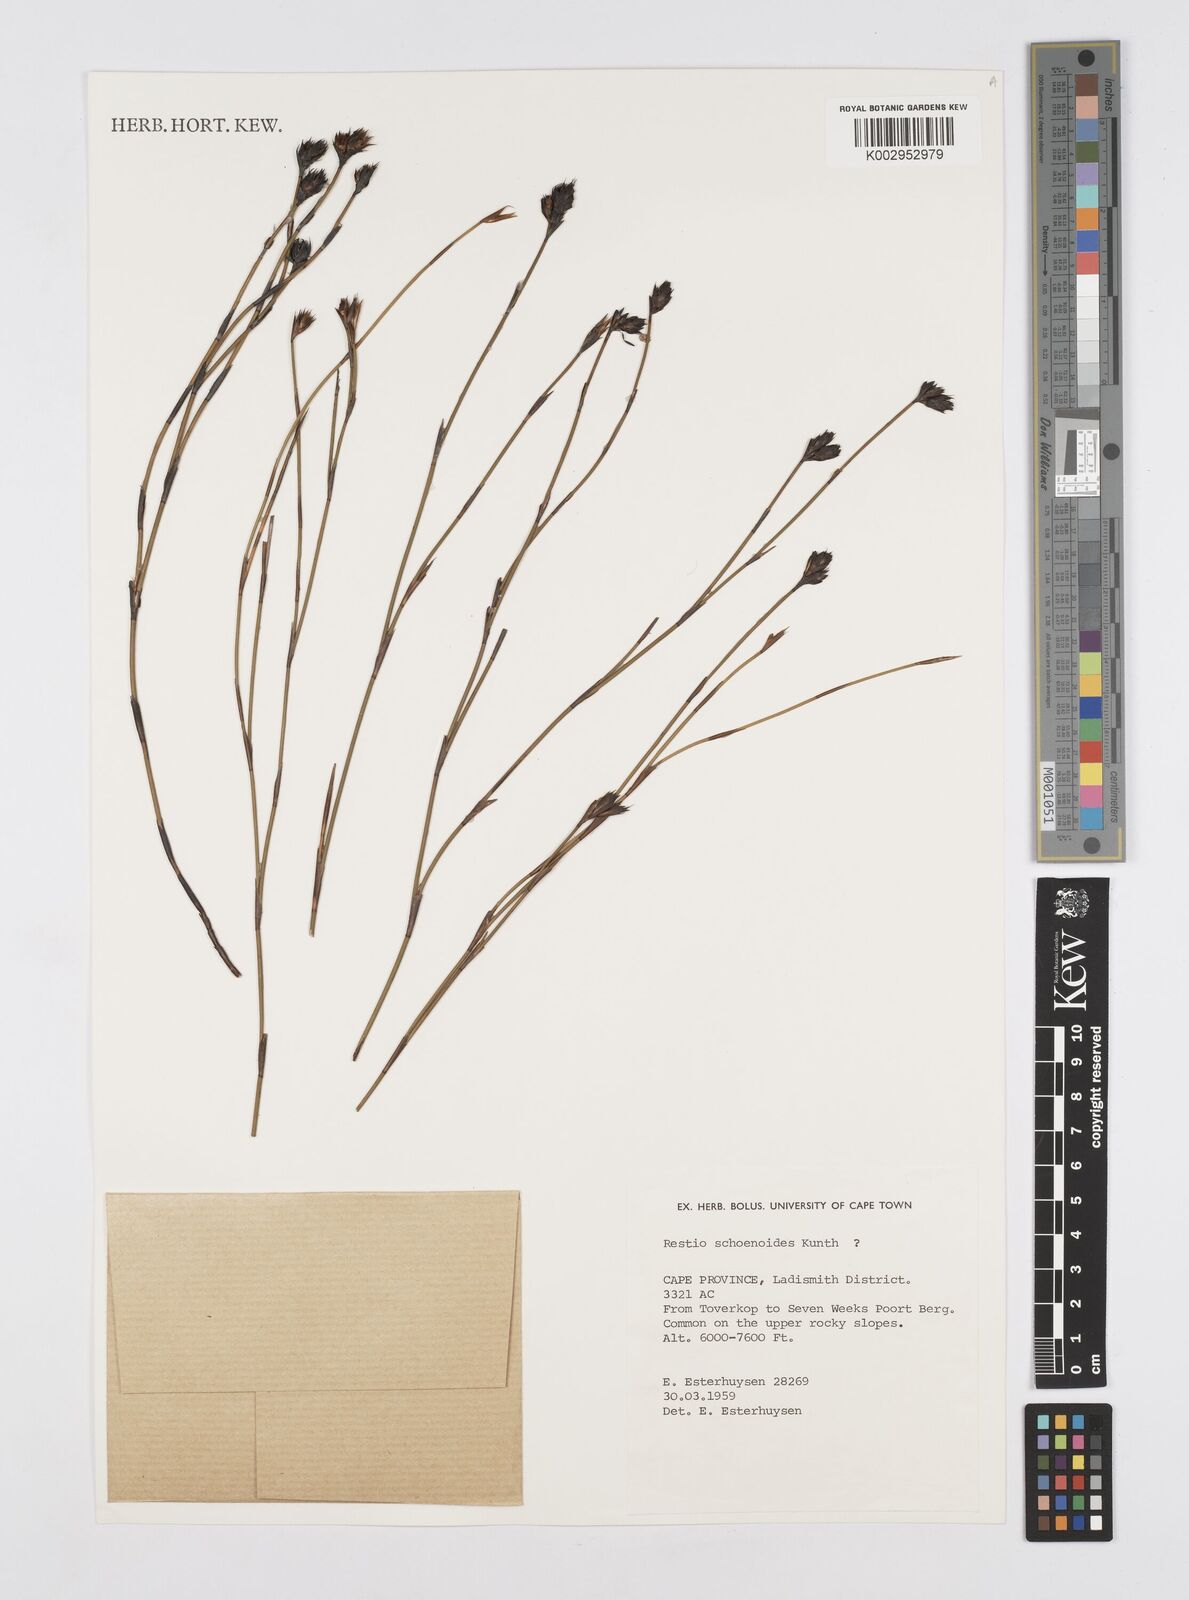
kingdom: Plantae
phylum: Tracheophyta
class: Liliopsida
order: Poales
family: Restionaceae
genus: Restio
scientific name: Restio schoenoides
